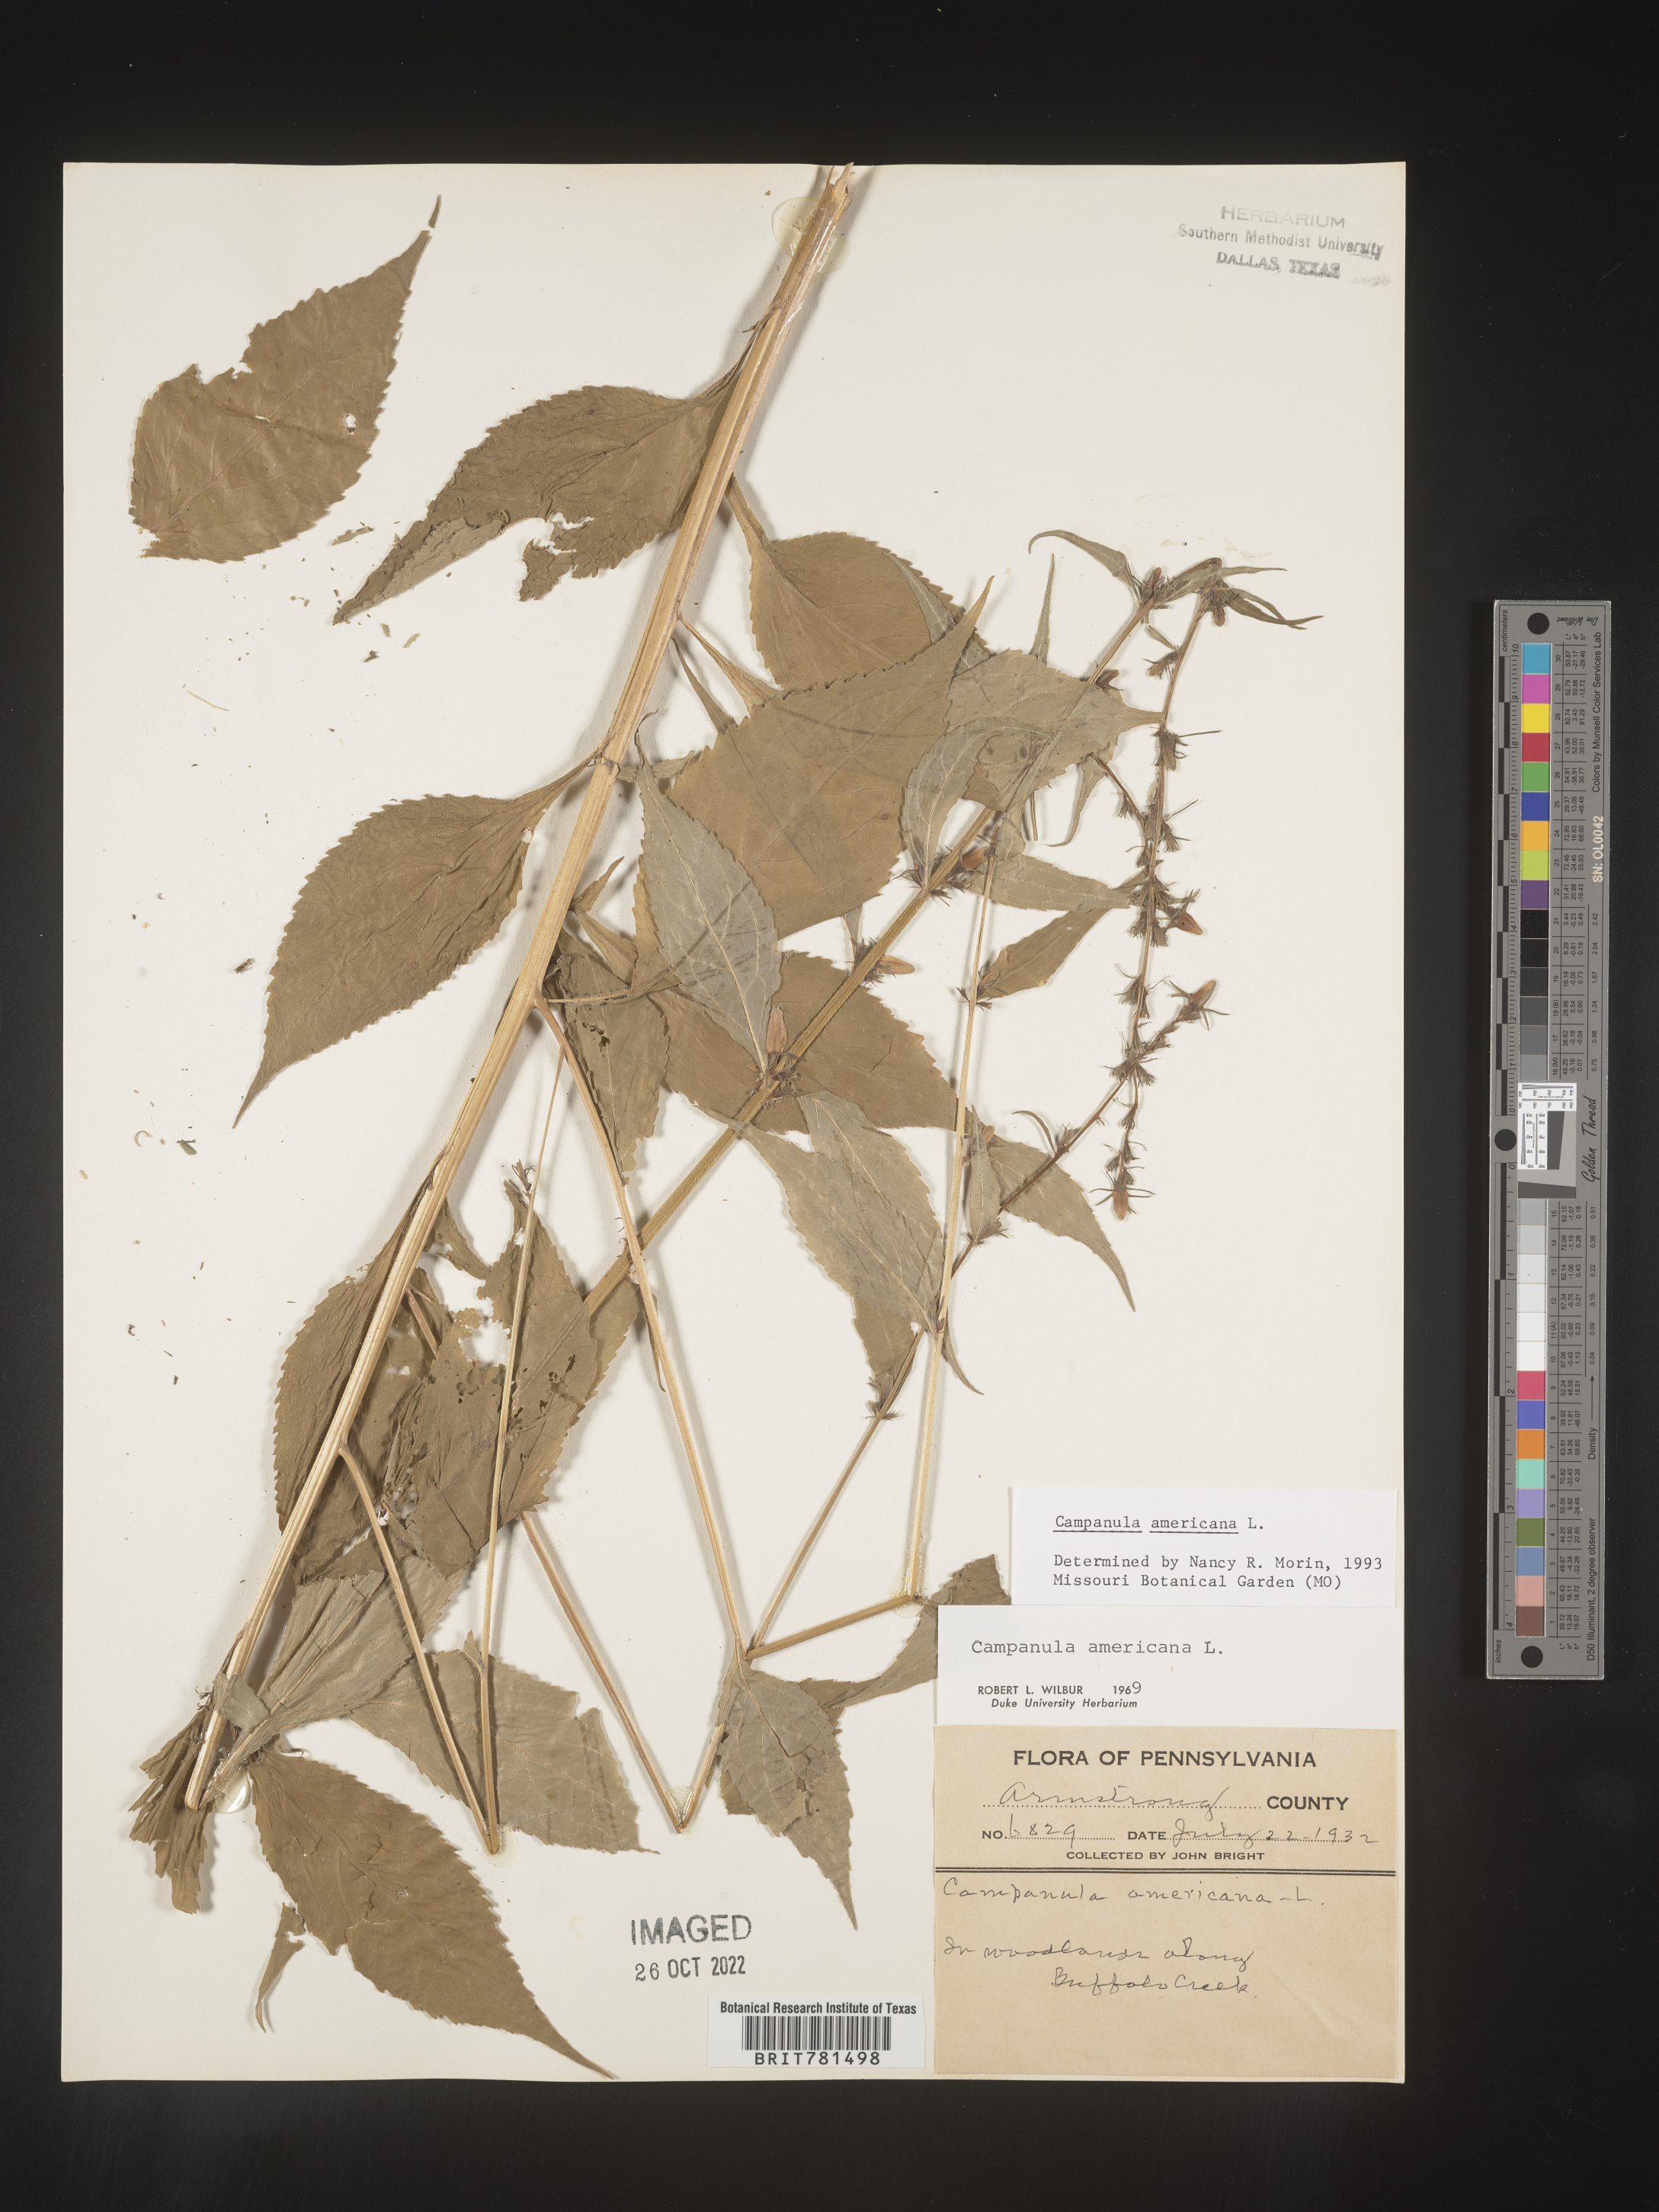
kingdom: Plantae
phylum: Tracheophyta
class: Magnoliopsida
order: Asterales
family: Campanulaceae
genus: Campanula
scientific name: Campanula americana
